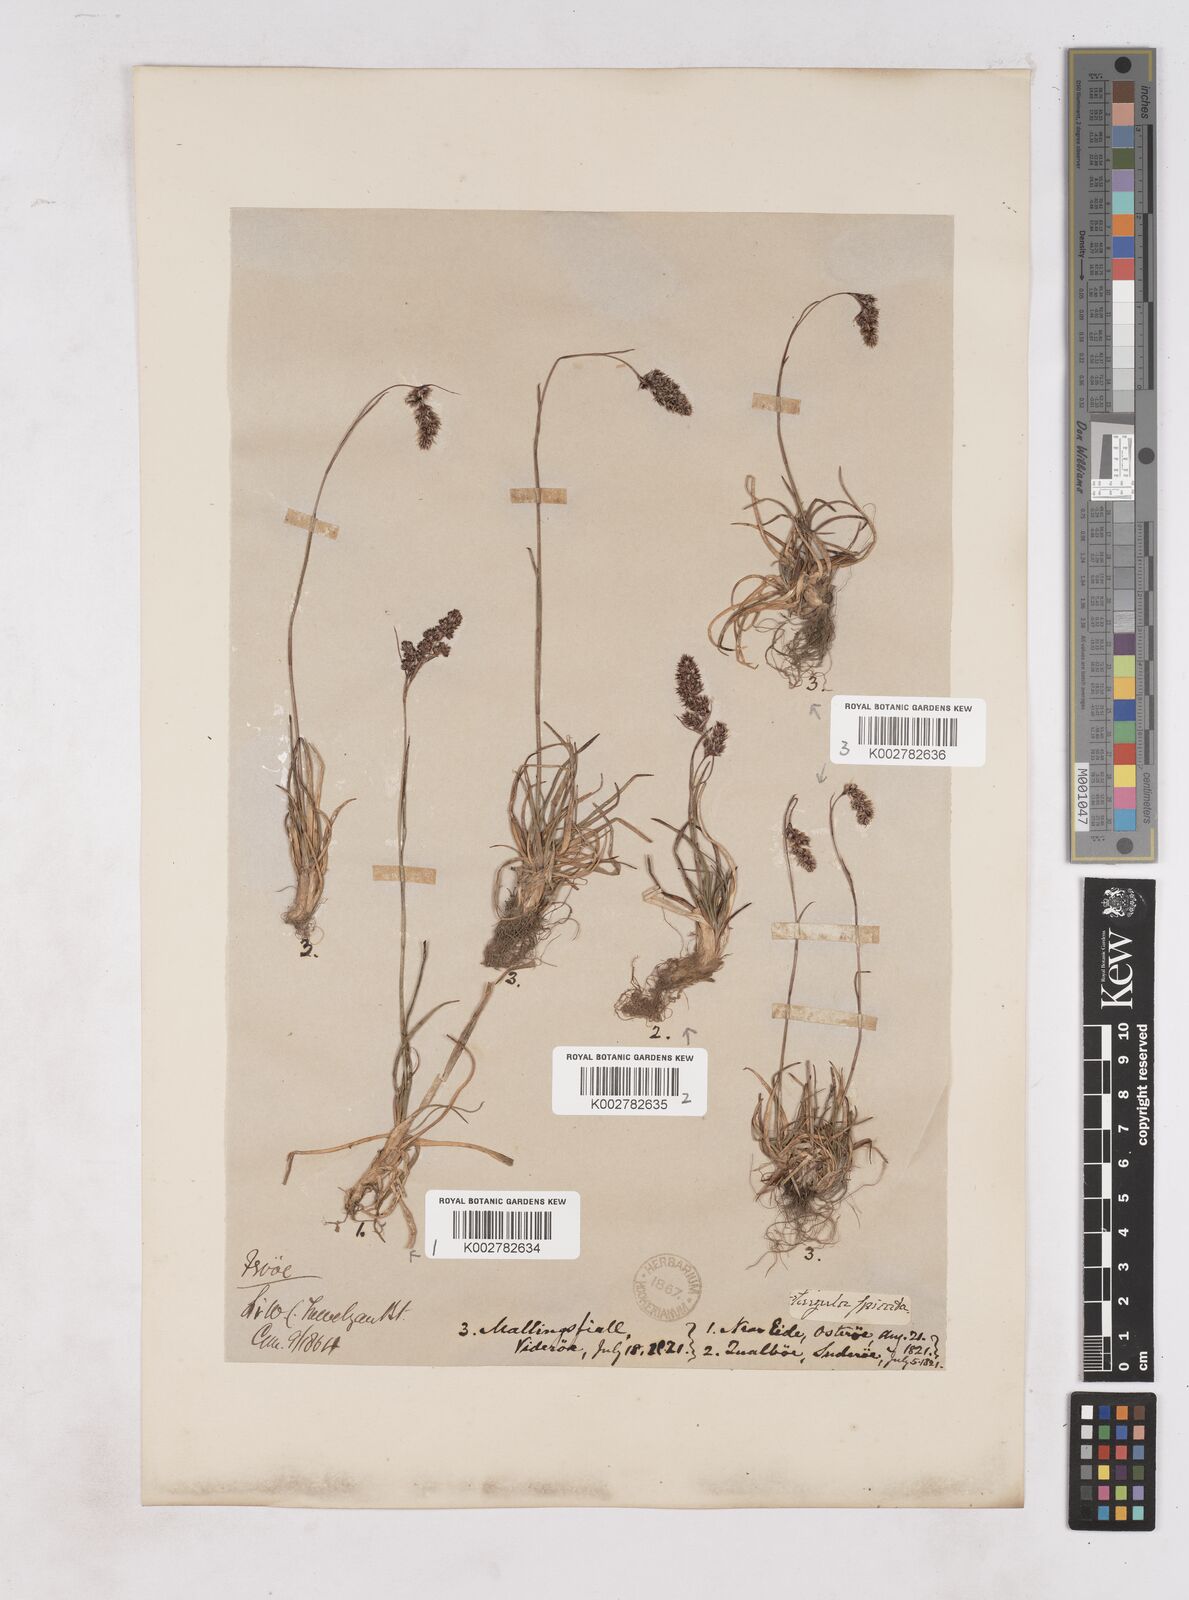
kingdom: Plantae
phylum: Tracheophyta
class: Liliopsida
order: Poales
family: Juncaceae
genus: Luzula
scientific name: Luzula spicata
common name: Spiked wood-rush
